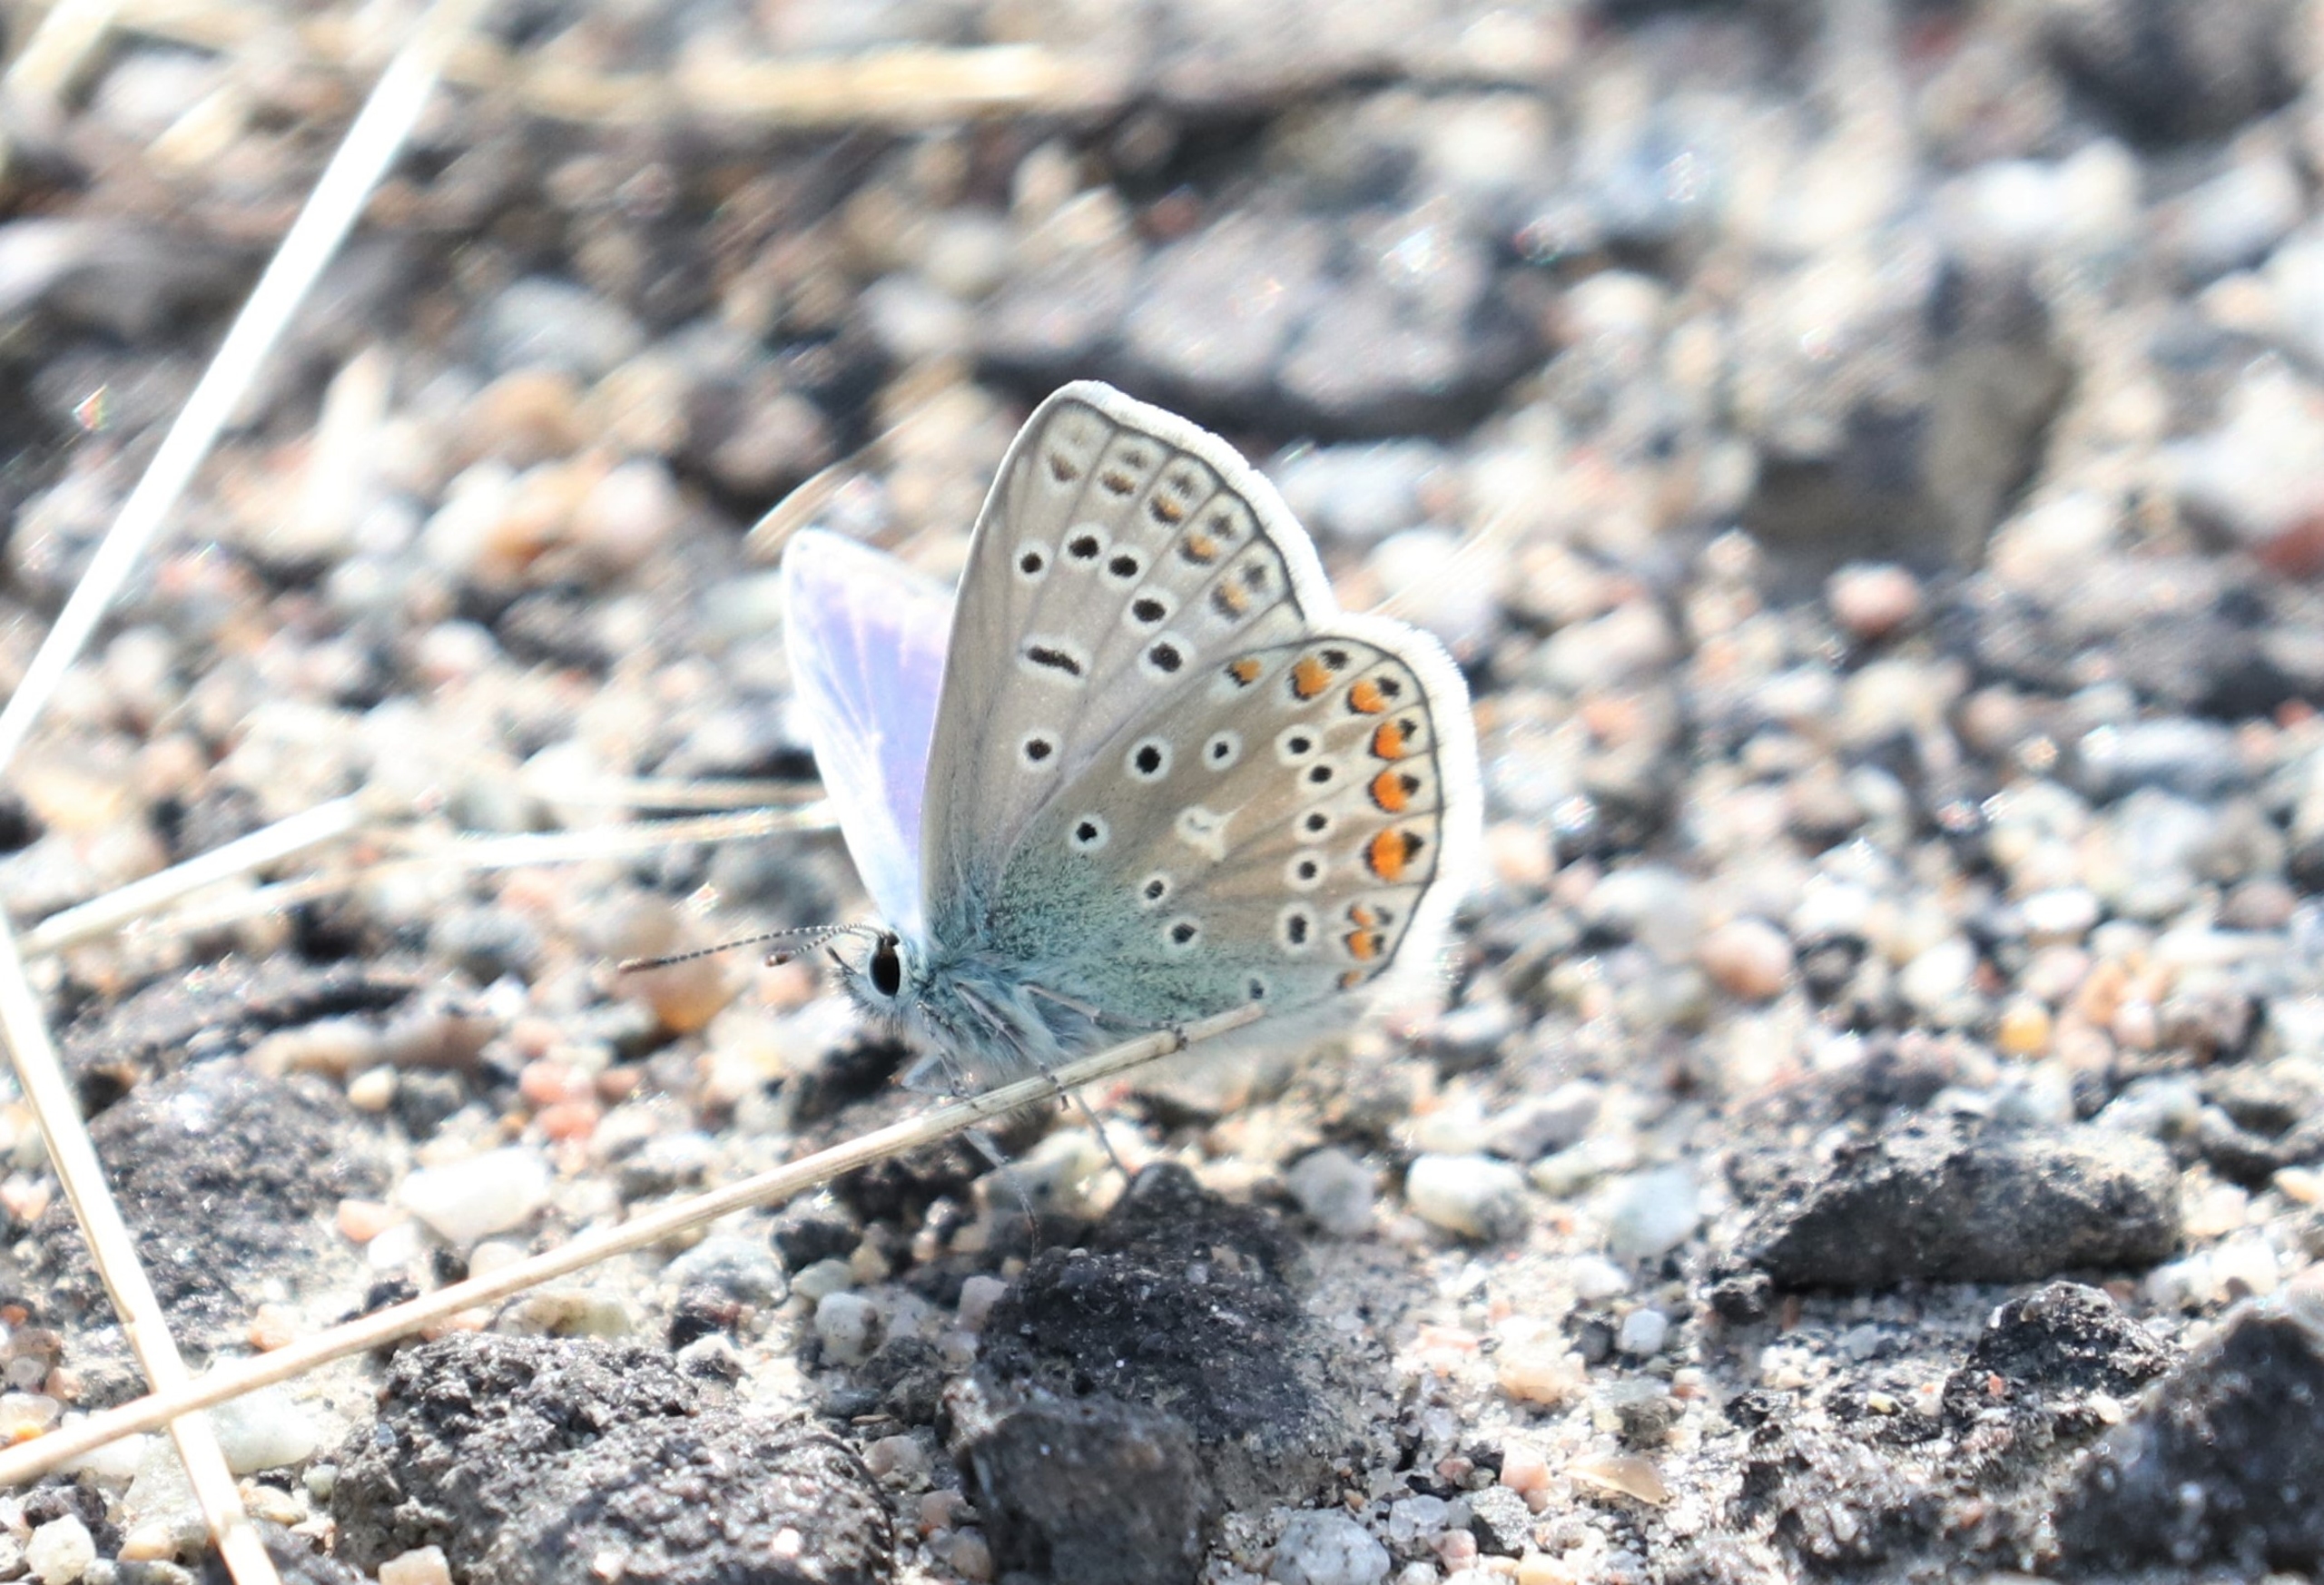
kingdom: Animalia
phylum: Arthropoda
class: Insecta
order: Lepidoptera
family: Lycaenidae
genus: Polyommatus
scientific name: Polyommatus icarus
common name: Almindelig blåfugl
